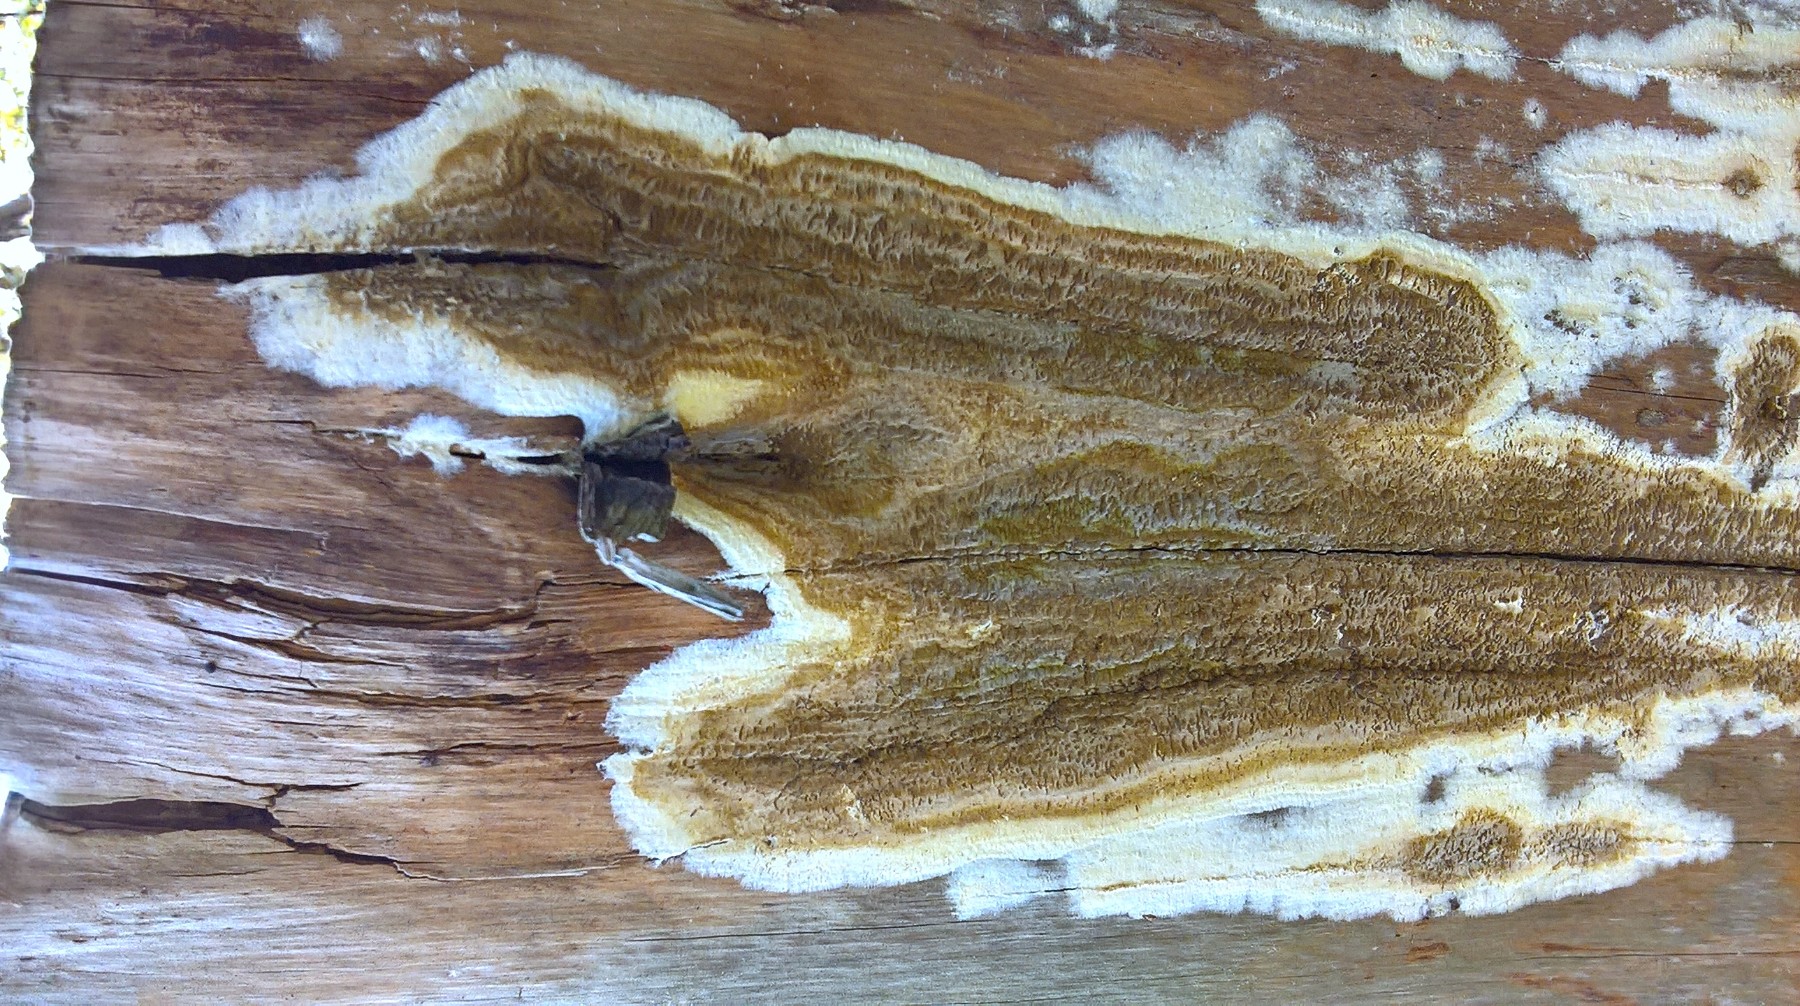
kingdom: Fungi
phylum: Basidiomycota
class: Agaricomycetes
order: Boletales
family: Coniophoraceae
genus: Coniophora
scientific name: Coniophora puteana
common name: gul tømmersvamp
